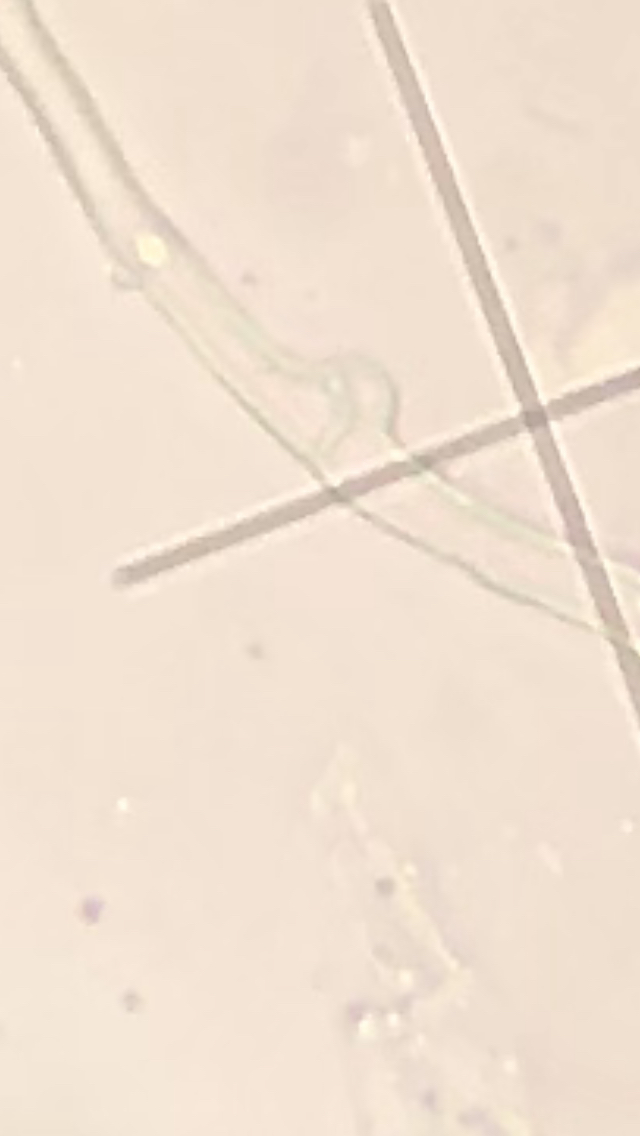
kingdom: Fungi
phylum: Basidiomycota
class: Agaricomycetes
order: Agaricales
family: Physalacriaceae
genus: Cylindrobasidium
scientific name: Cylindrobasidium evolvens
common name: sprækkehinde
